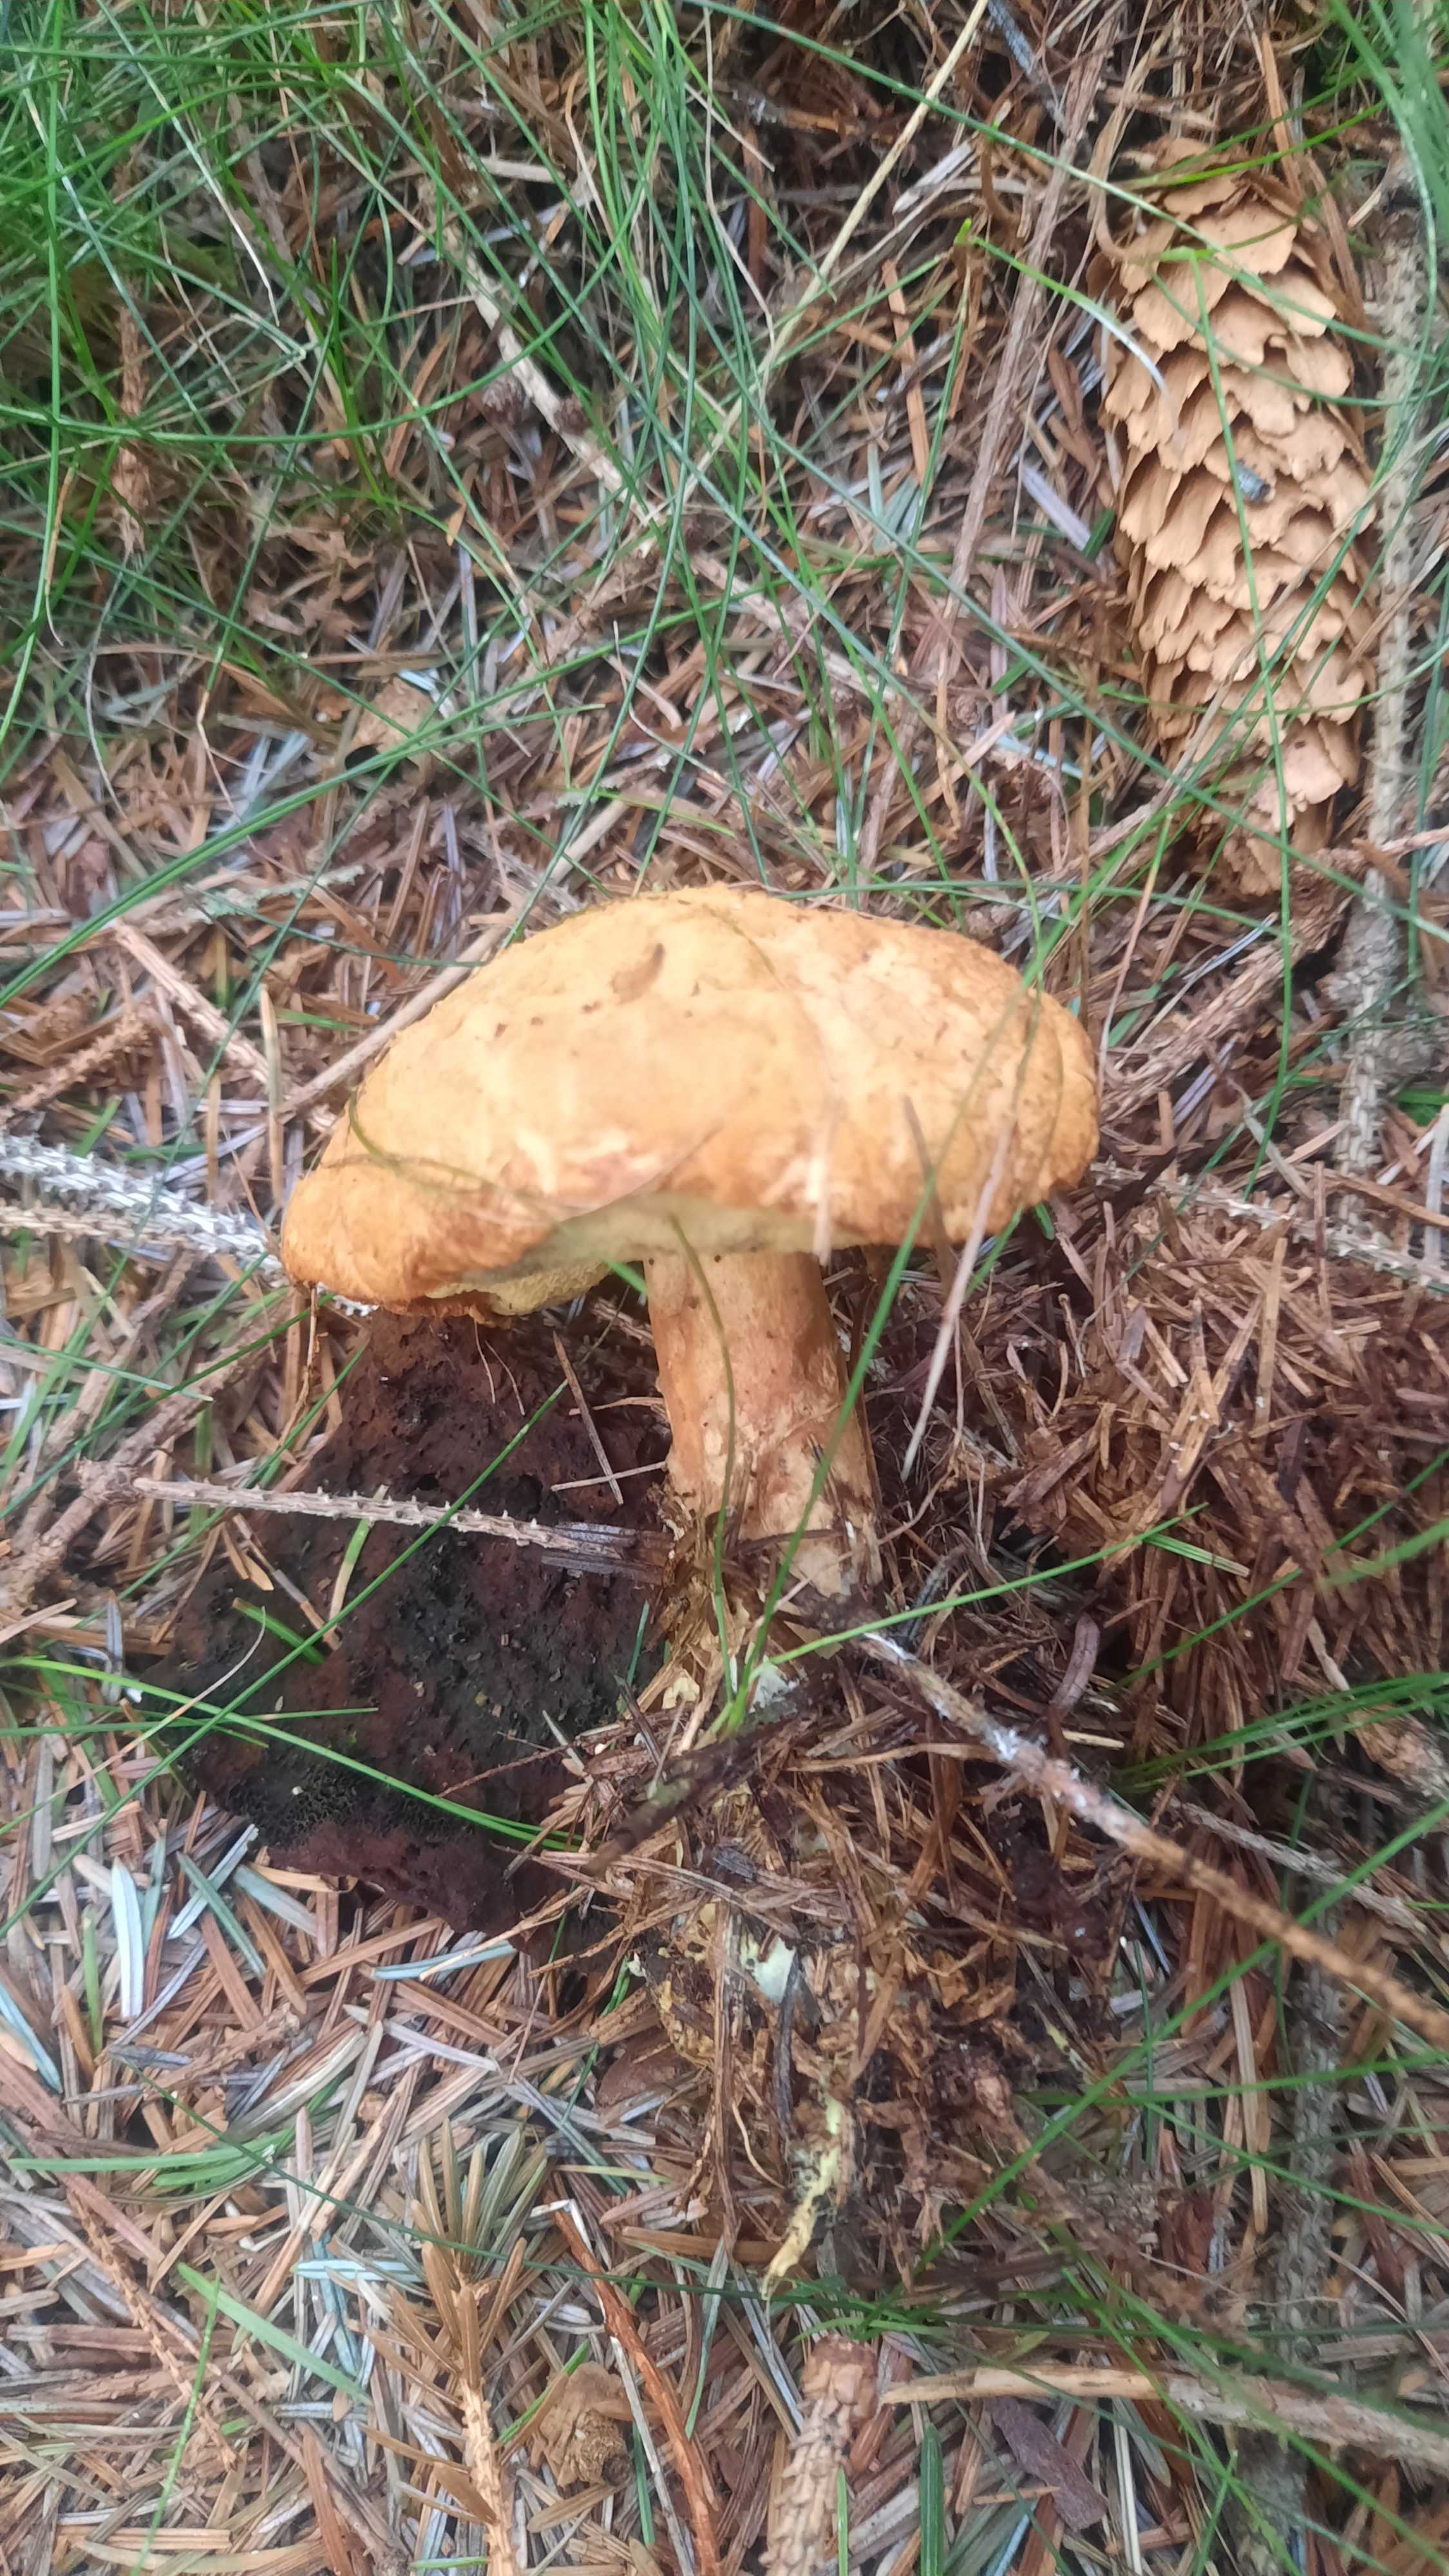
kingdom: Fungi
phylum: Basidiomycota
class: Agaricomycetes
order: Boletales
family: Boletaceae
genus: Buchwaldoboletus
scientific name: Buchwaldoboletus lignicola
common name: stødrørhat
